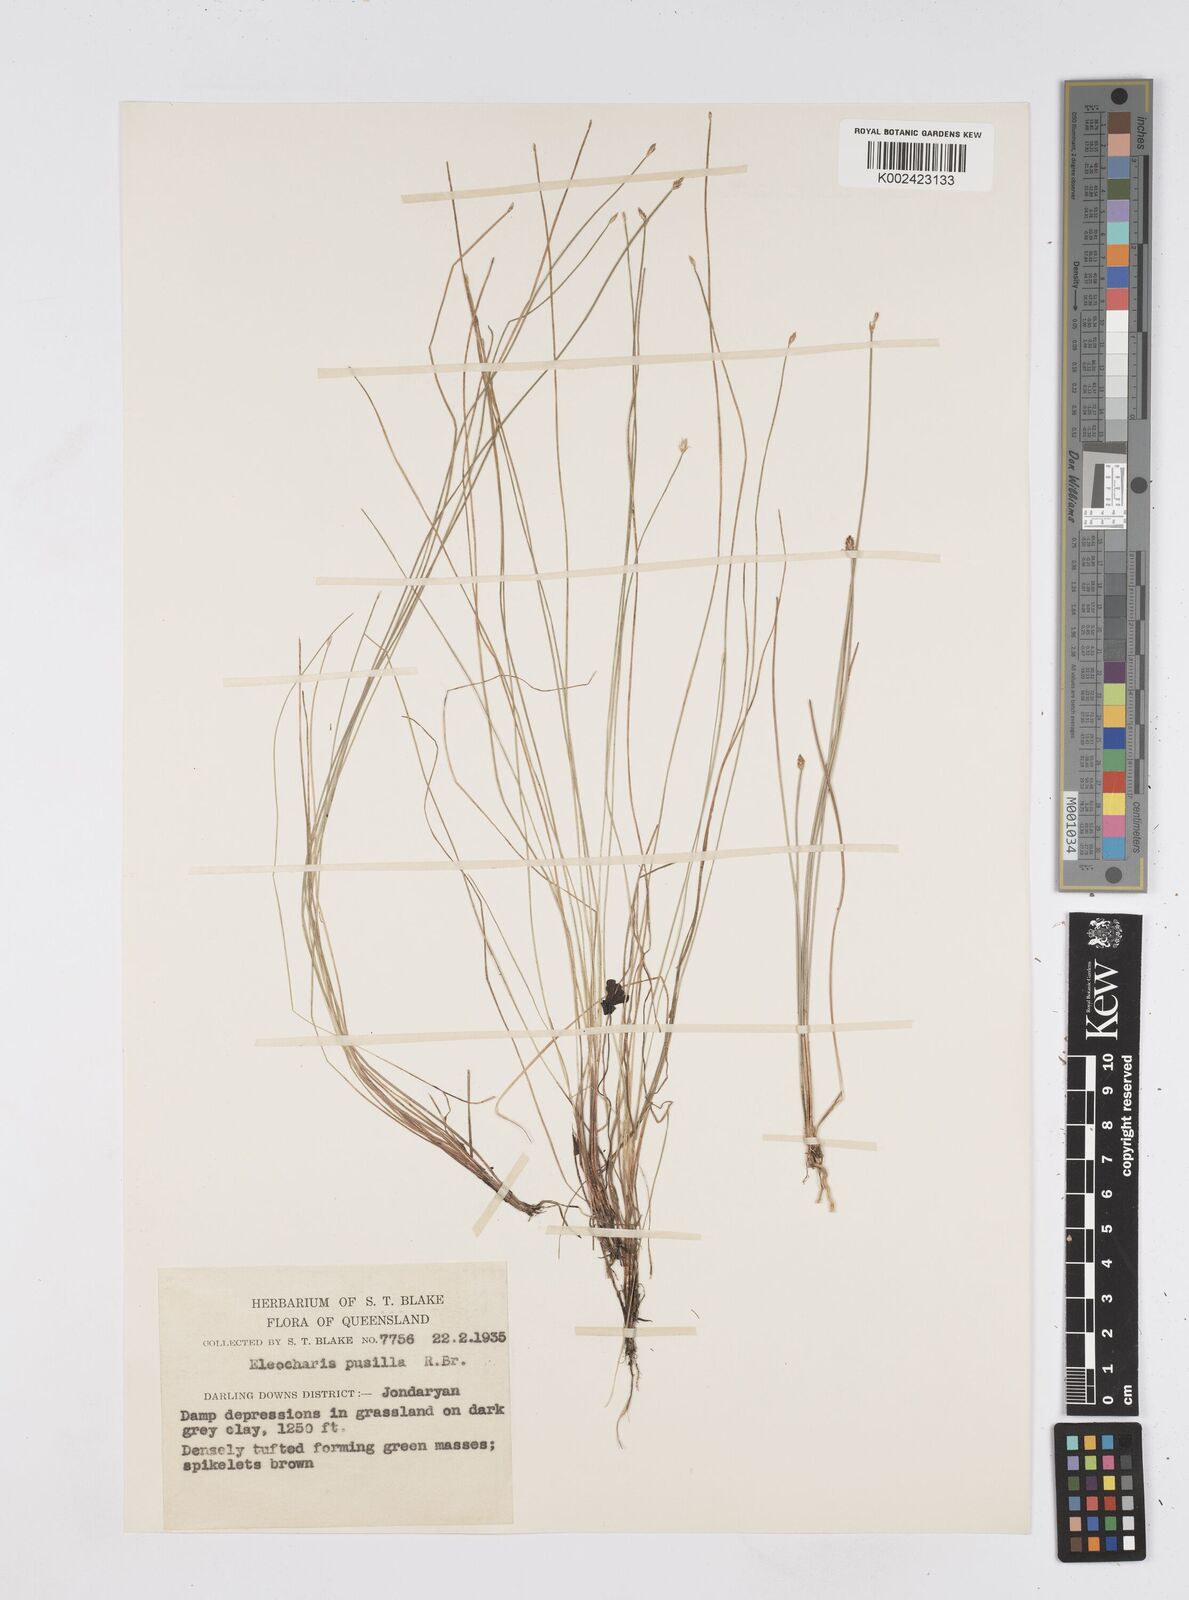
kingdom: Plantae
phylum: Tracheophyta
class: Liliopsida
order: Poales
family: Cyperaceae
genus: Eleocharis
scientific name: Eleocharis pusilla
